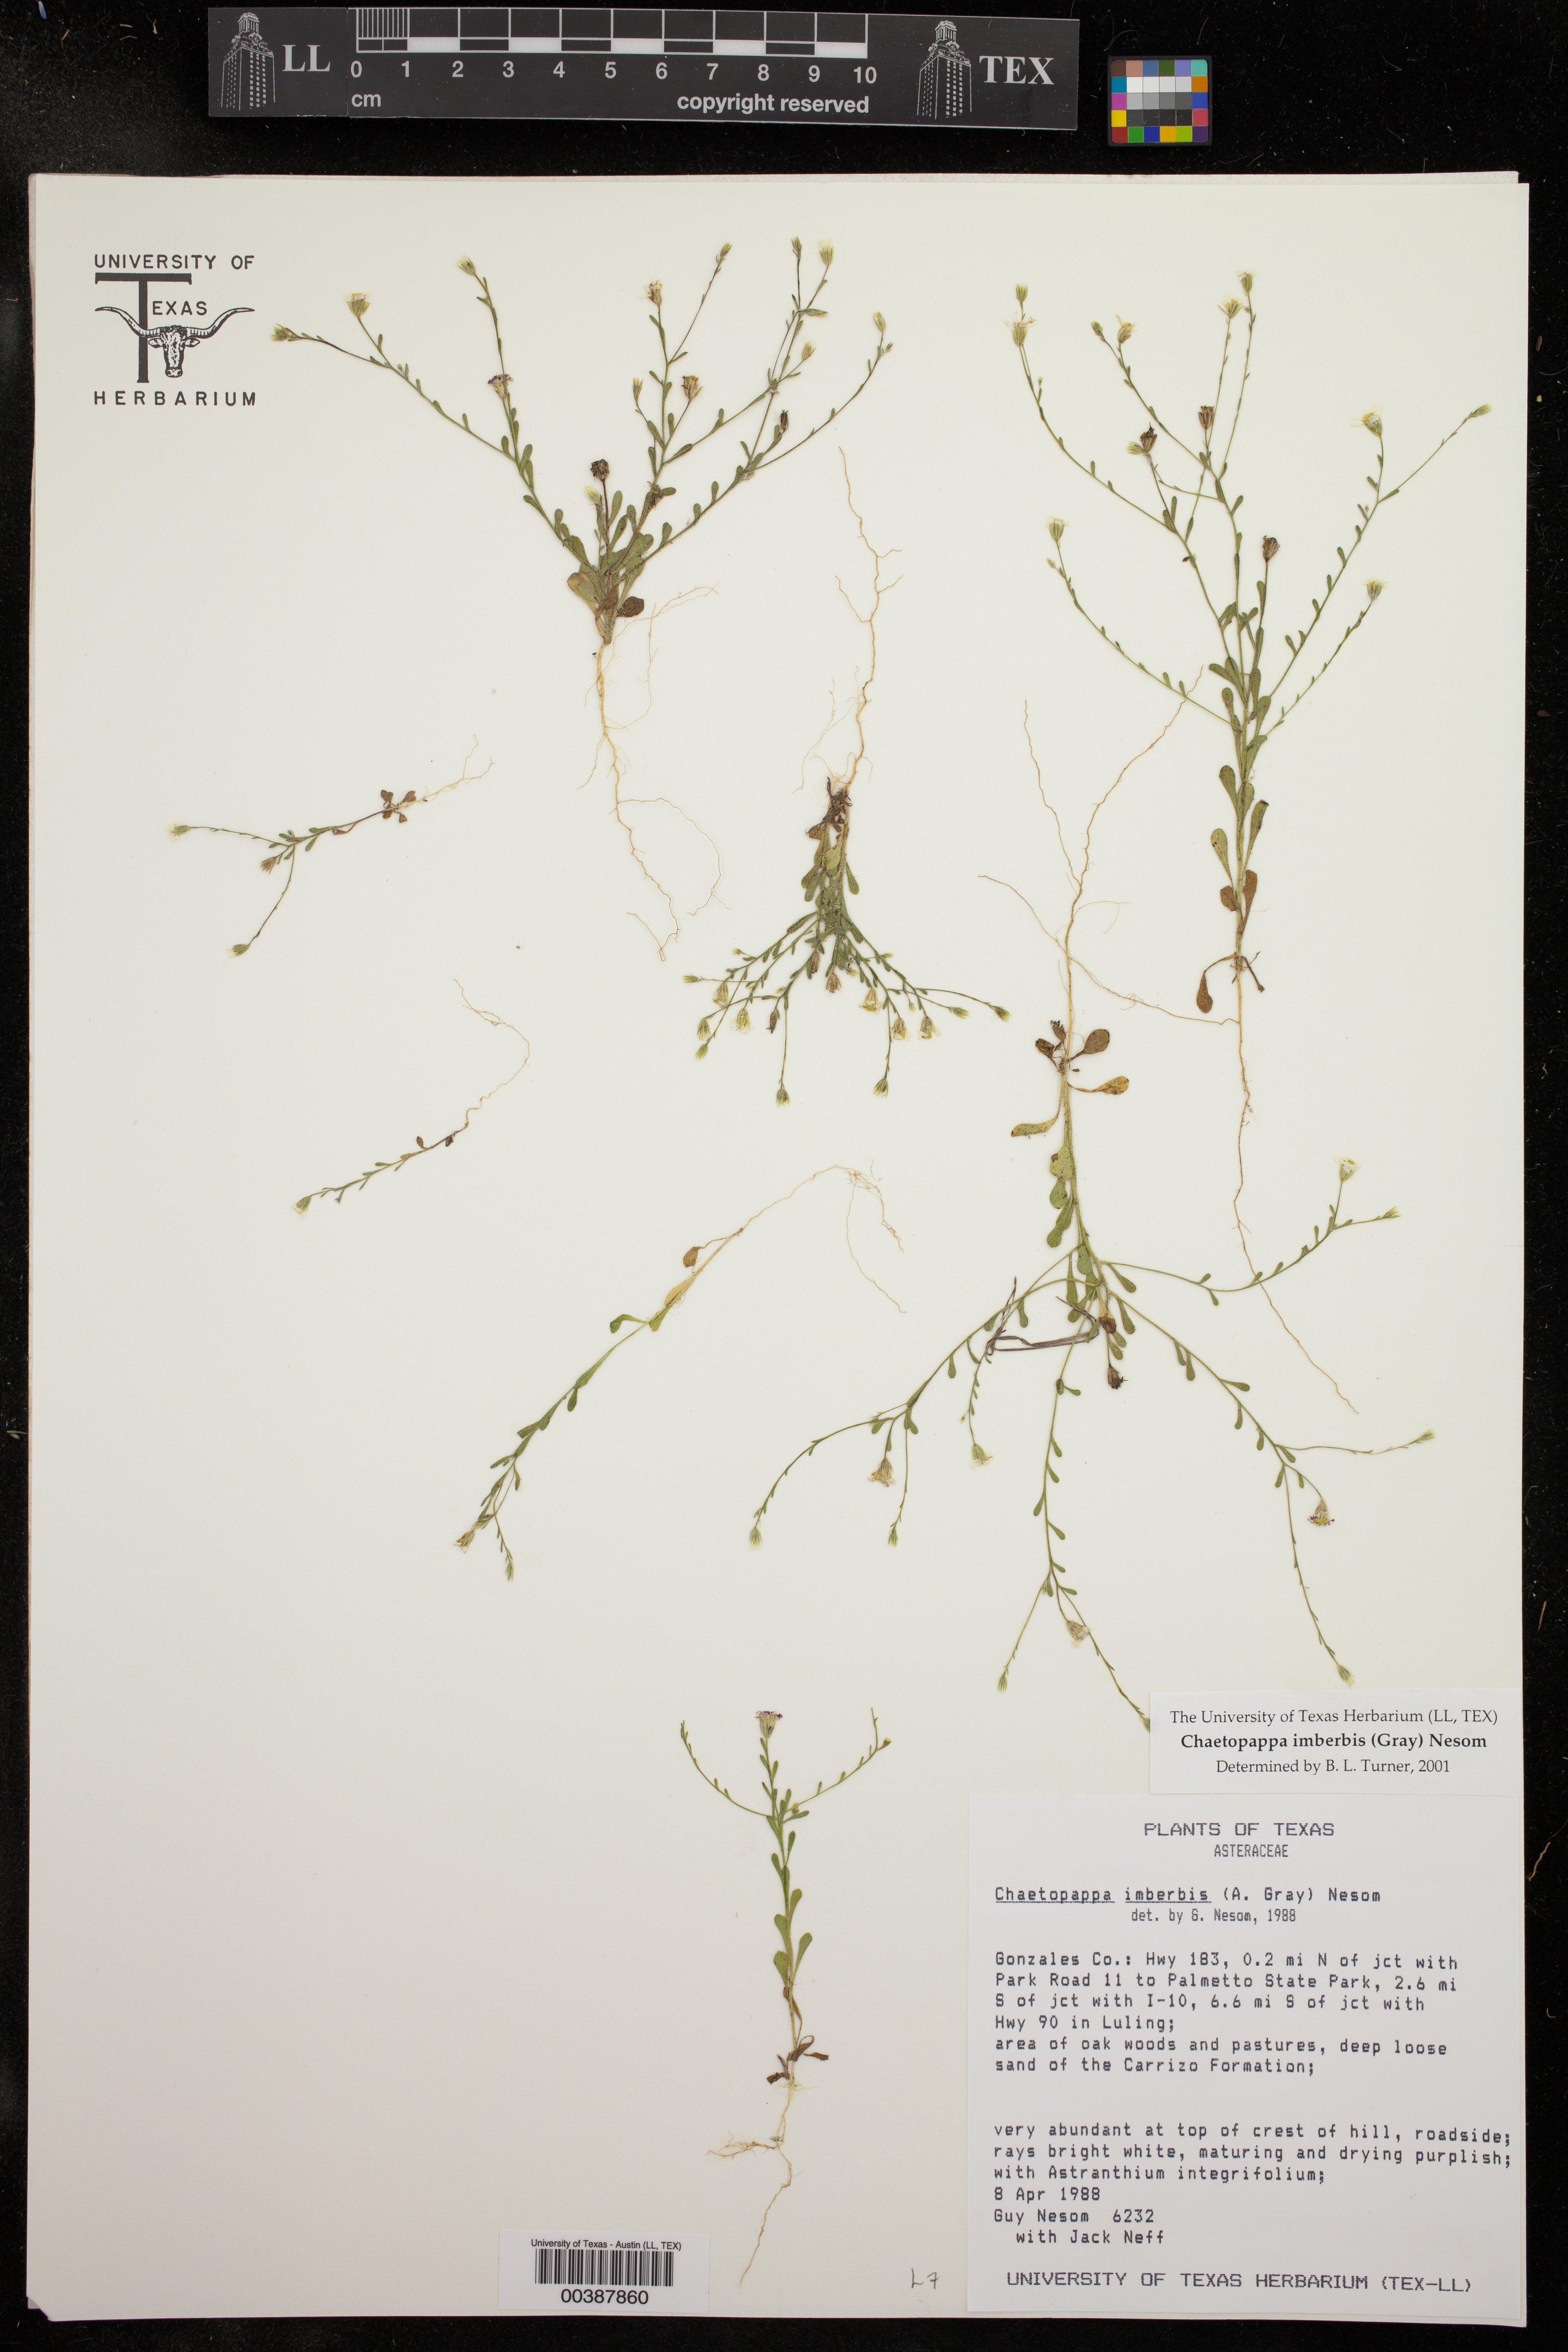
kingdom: Plantae
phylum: Tracheophyta
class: Magnoliopsida
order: Asterales
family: Asteraceae
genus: Chaetopappa
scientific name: Chaetopappa imberbis
